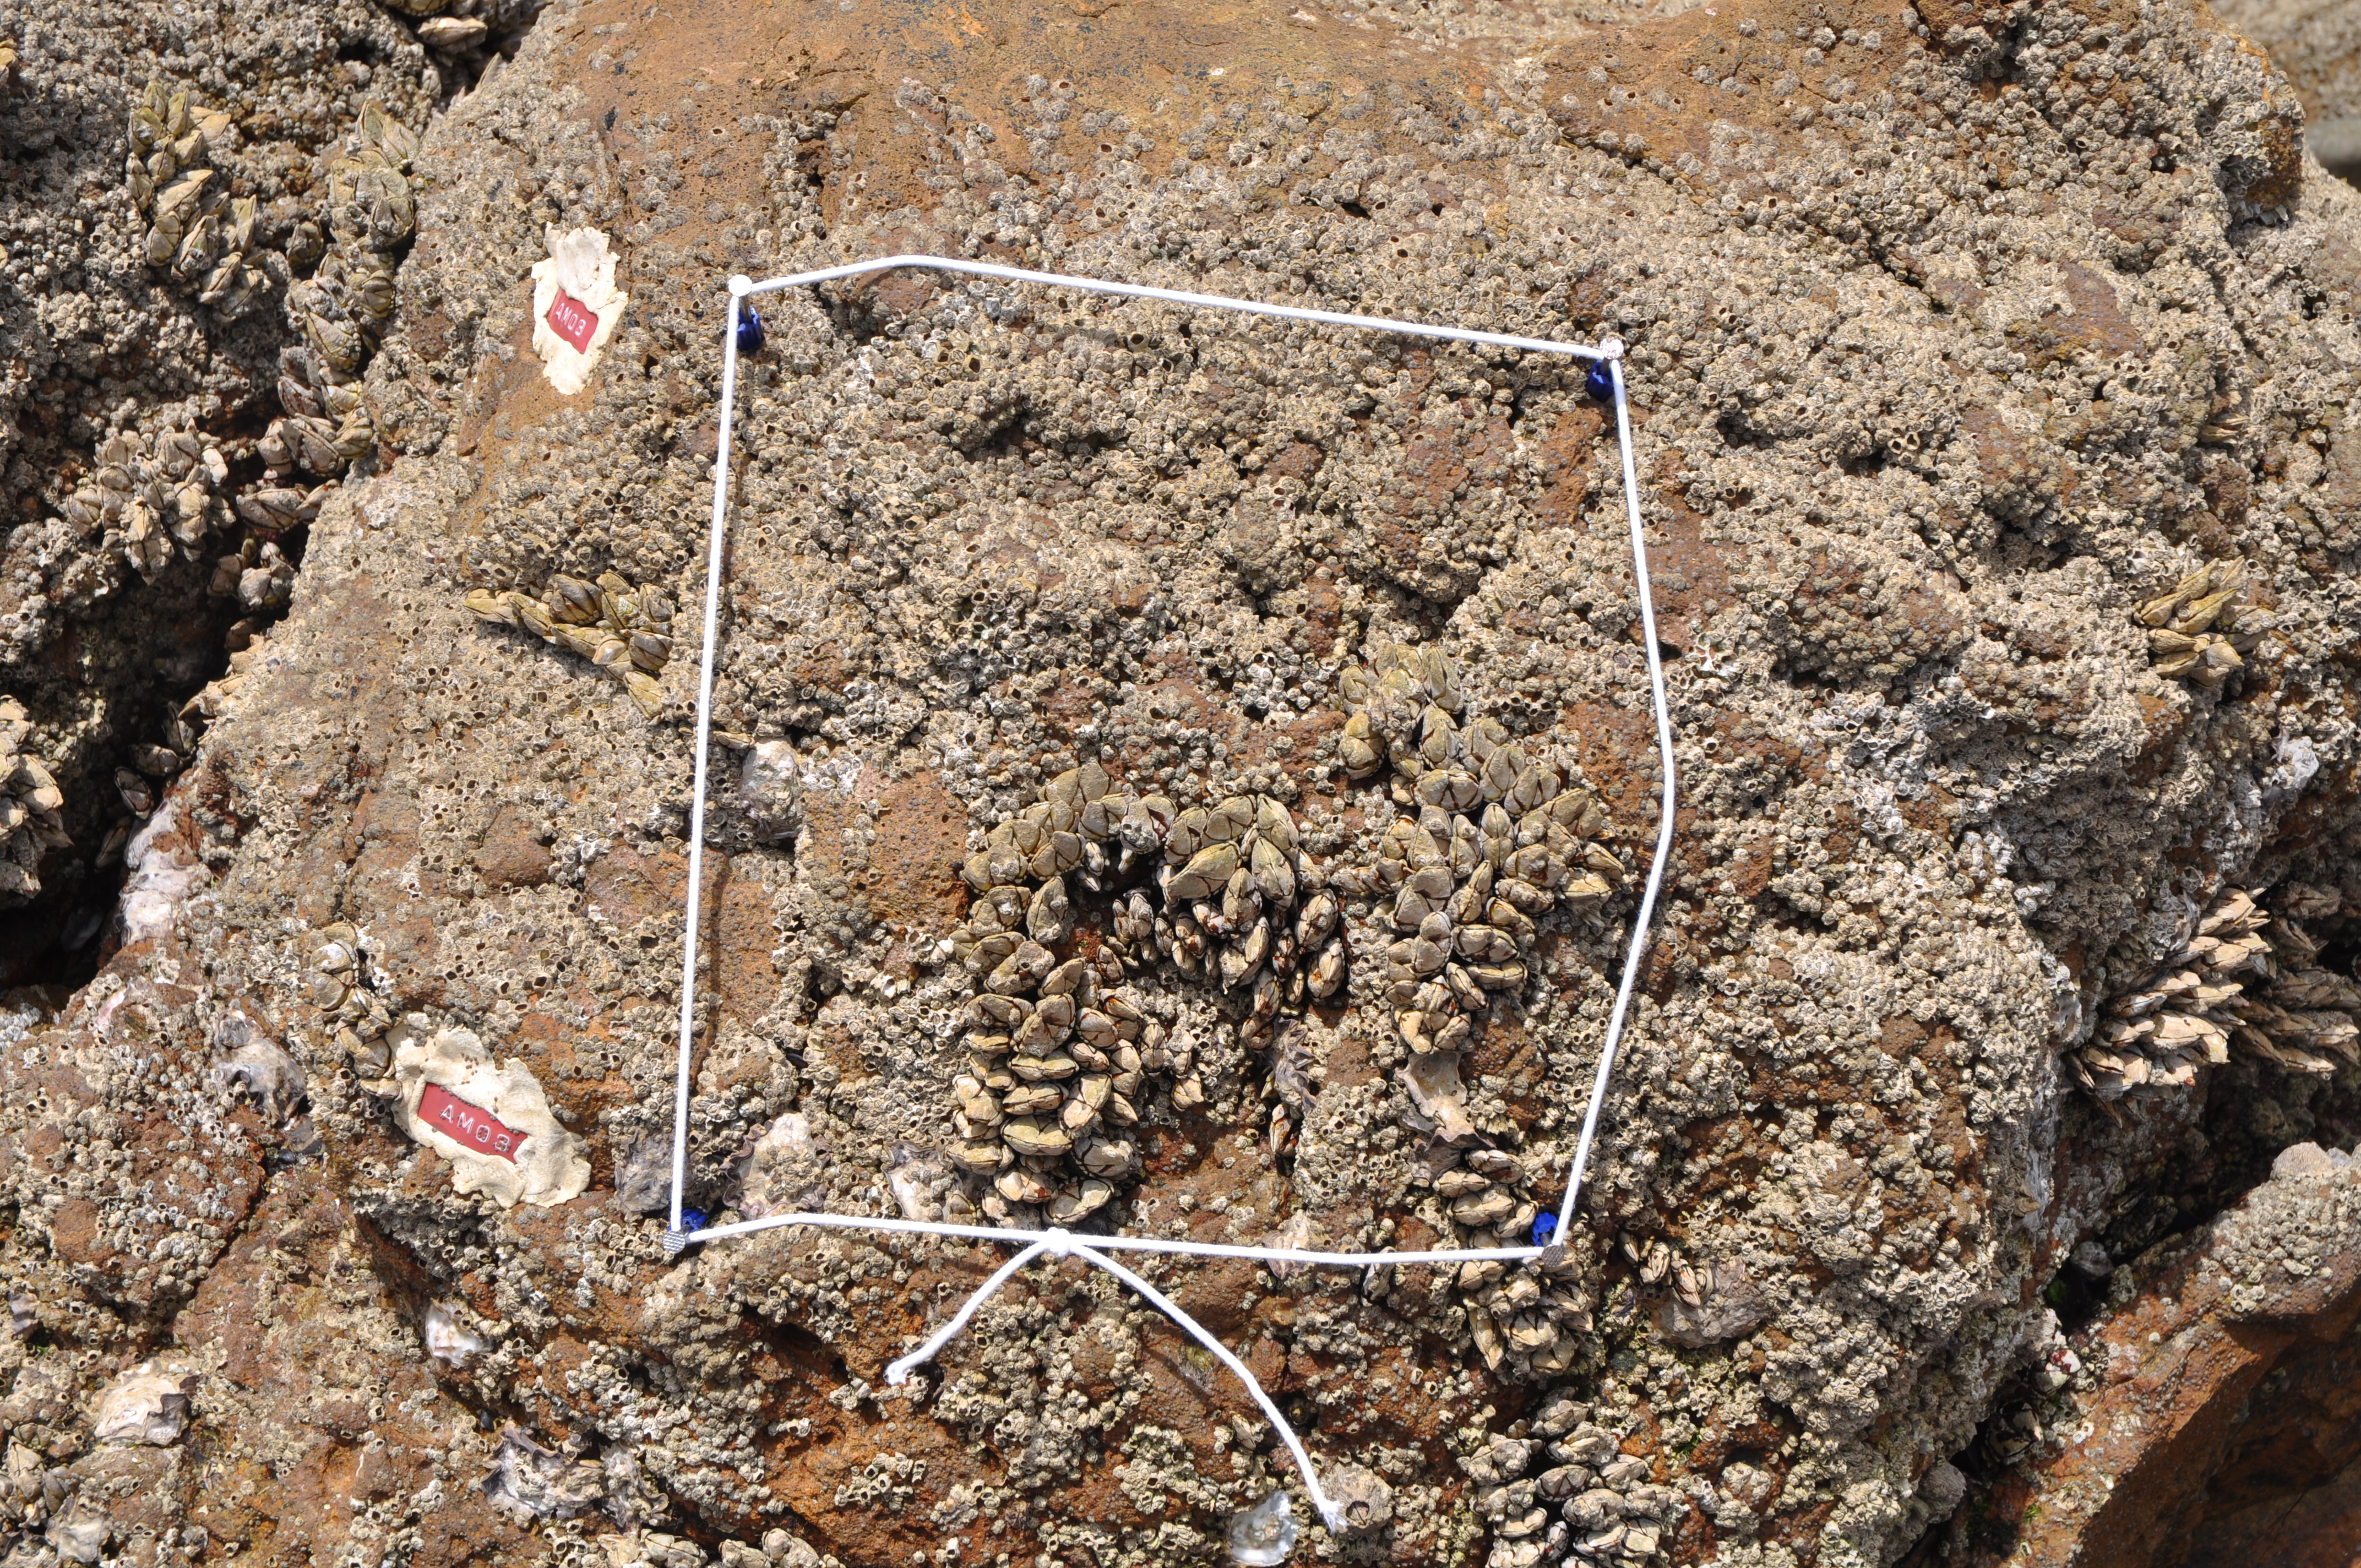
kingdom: Animalia
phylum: Arthropoda
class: Maxillopoda
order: Sessilia
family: Chthamalidae
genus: Chthamalus
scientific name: Chthamalus challengeri
